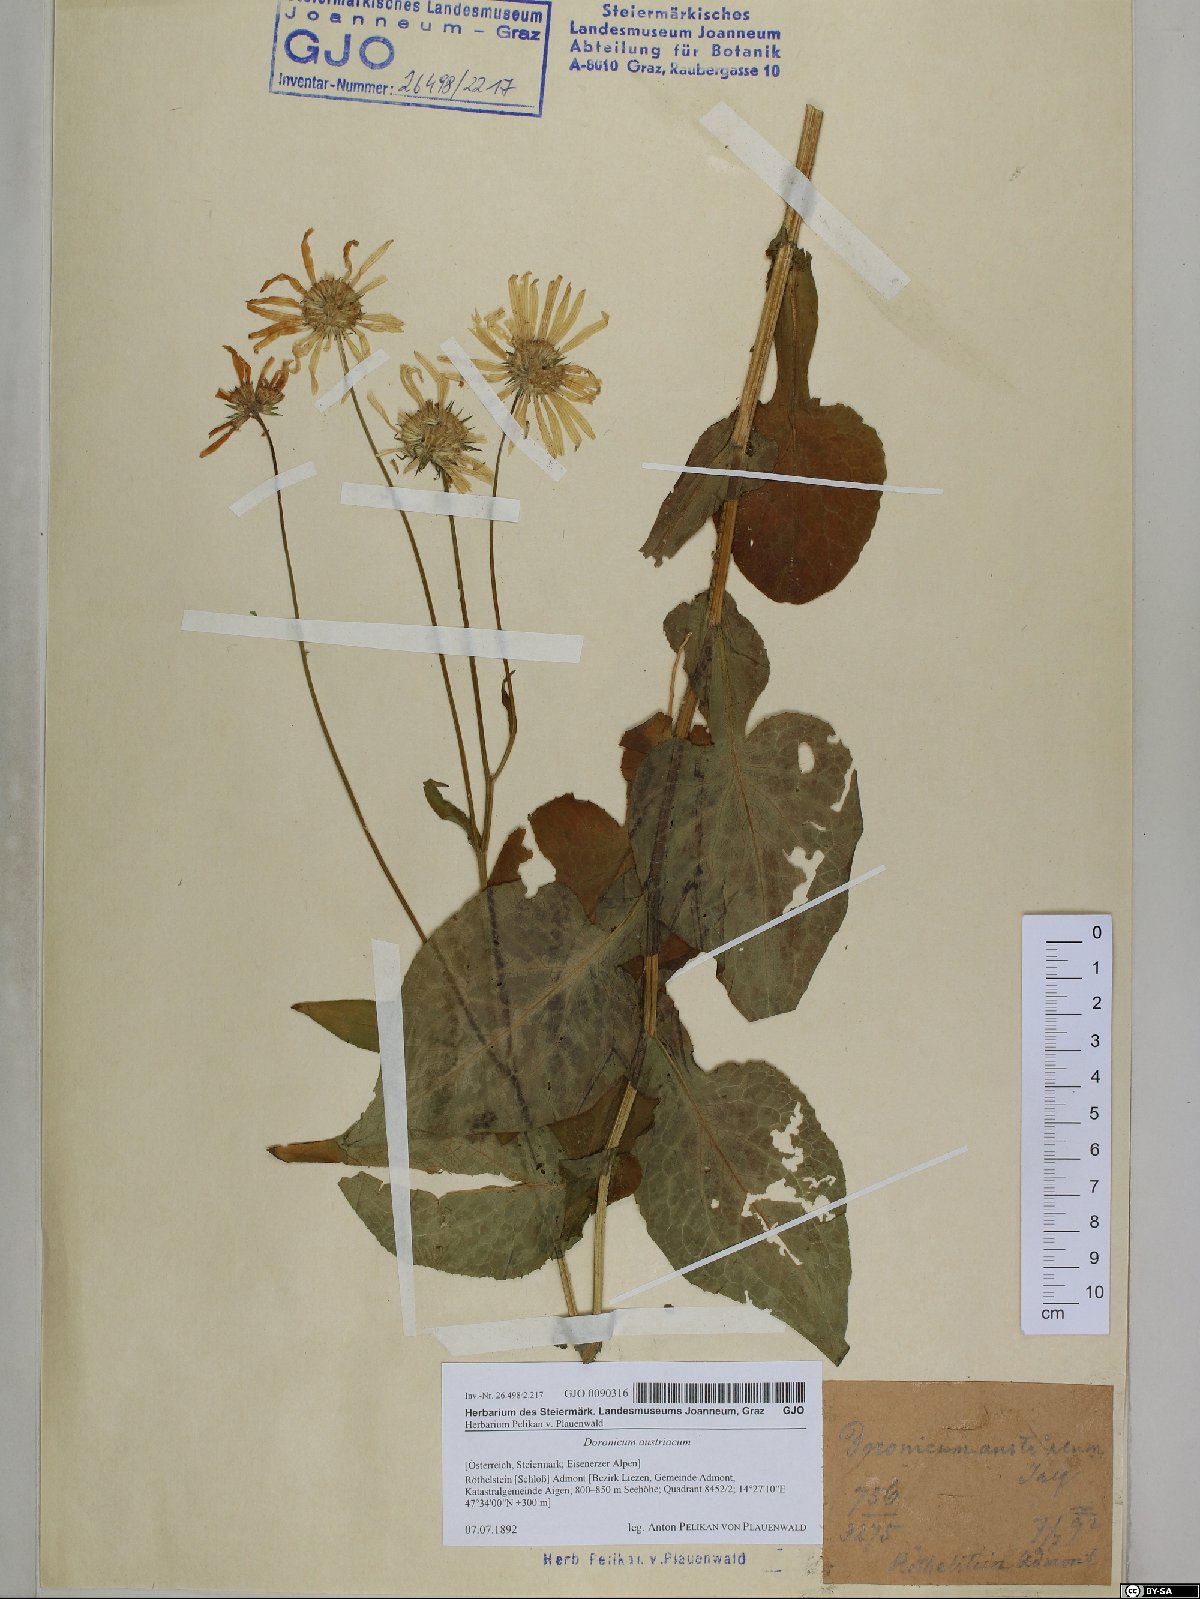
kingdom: Plantae
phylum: Tracheophyta
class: Magnoliopsida
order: Asterales
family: Asteraceae
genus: Doronicum
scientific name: Doronicum austriacum
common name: Austrian leopard's-bane
